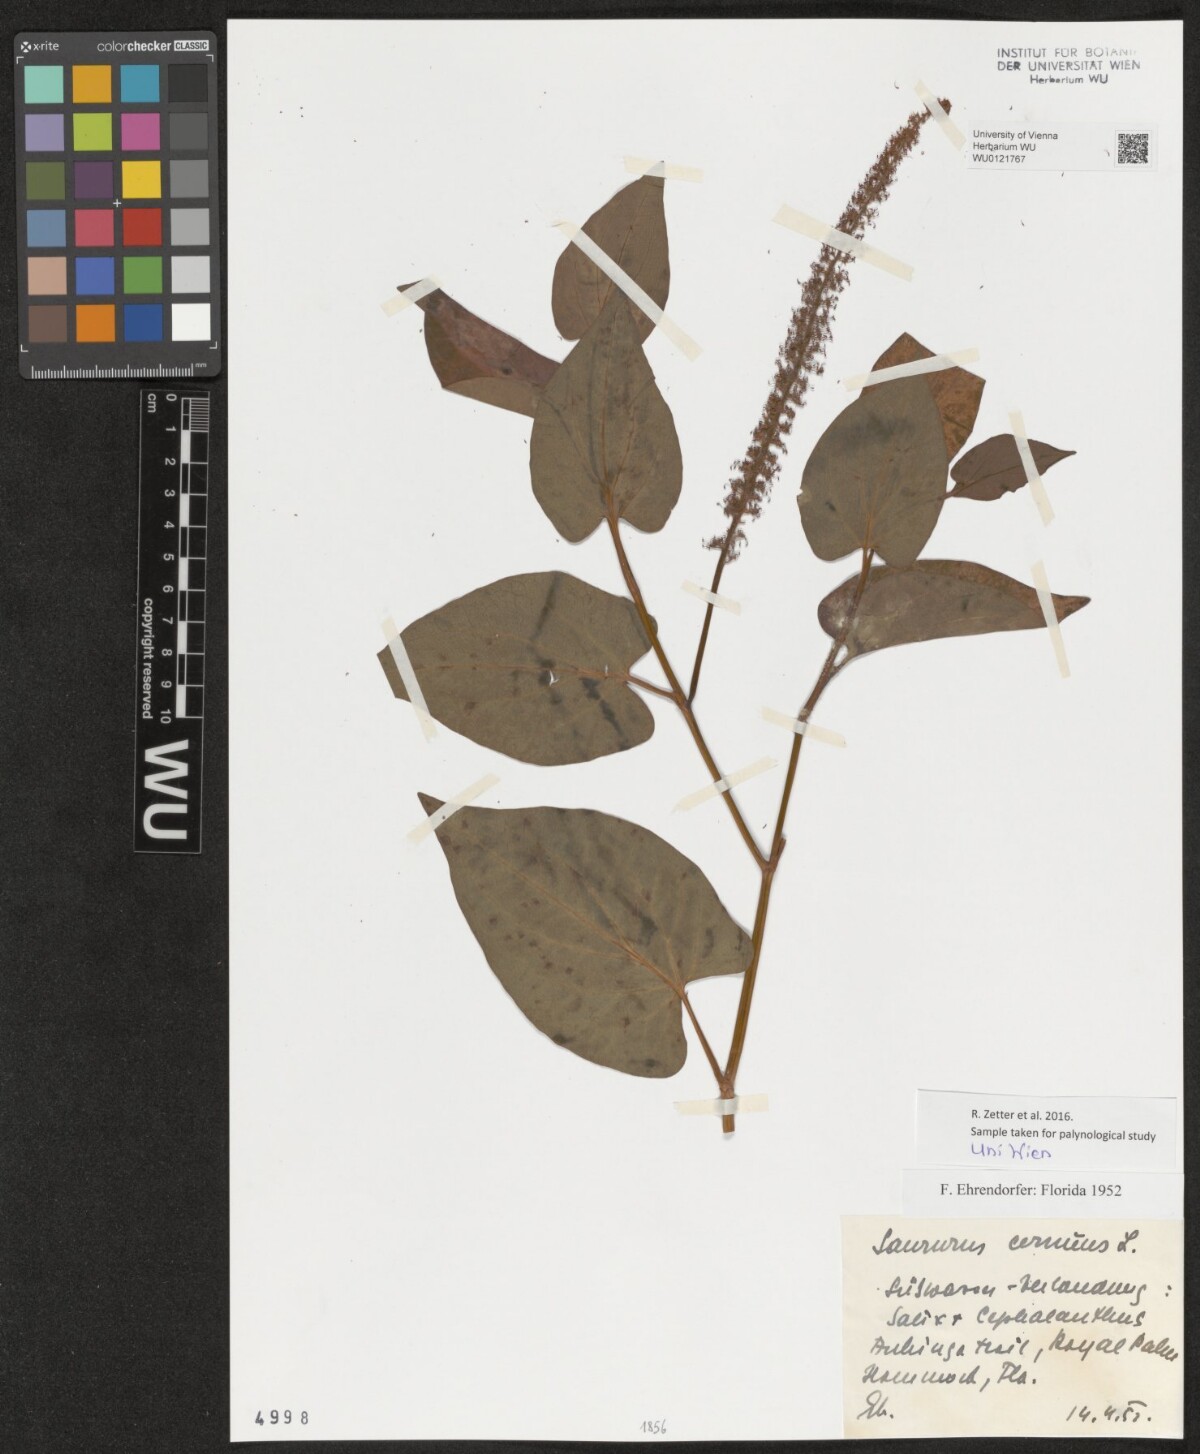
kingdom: Plantae
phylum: Tracheophyta
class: Magnoliopsida
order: Piperales
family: Saururaceae
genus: Saururus
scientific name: Saururus cernuus
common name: Lizard's-tail
